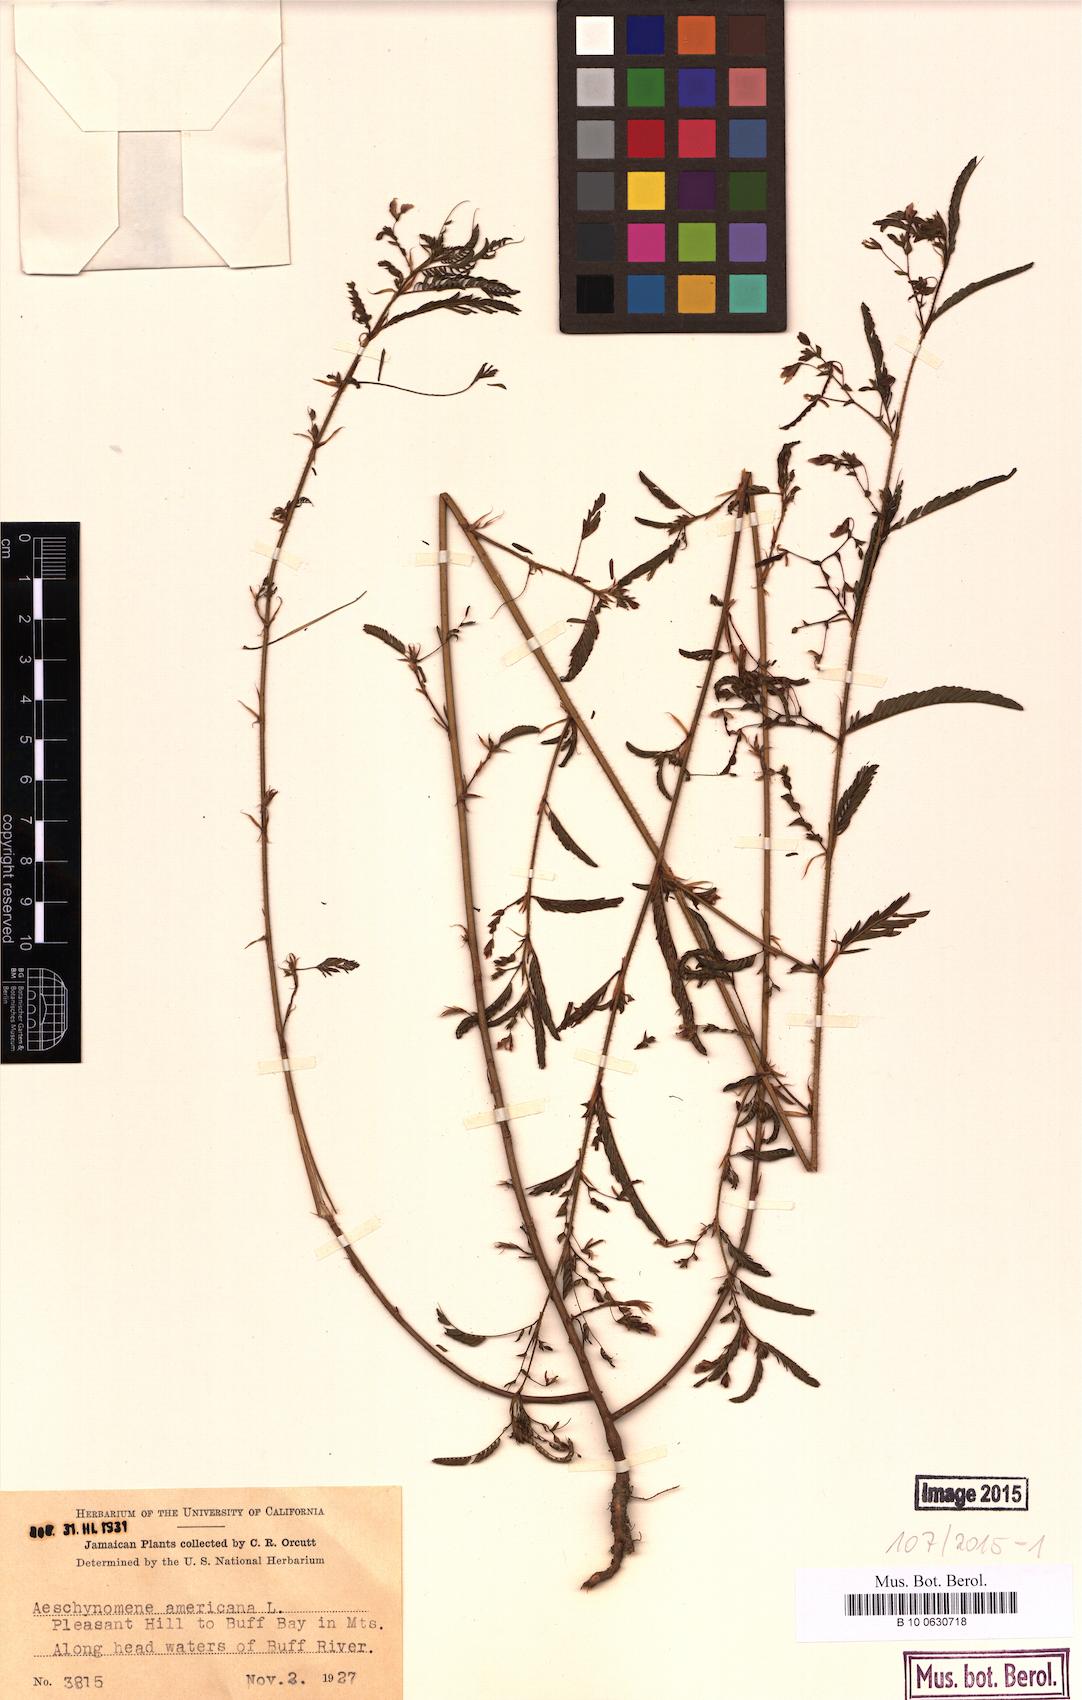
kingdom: Plantae
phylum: Tracheophyta
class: Magnoliopsida
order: Fabales
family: Fabaceae
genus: Aeschynomene
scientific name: Aeschynomene americana
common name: Joint-vetch
